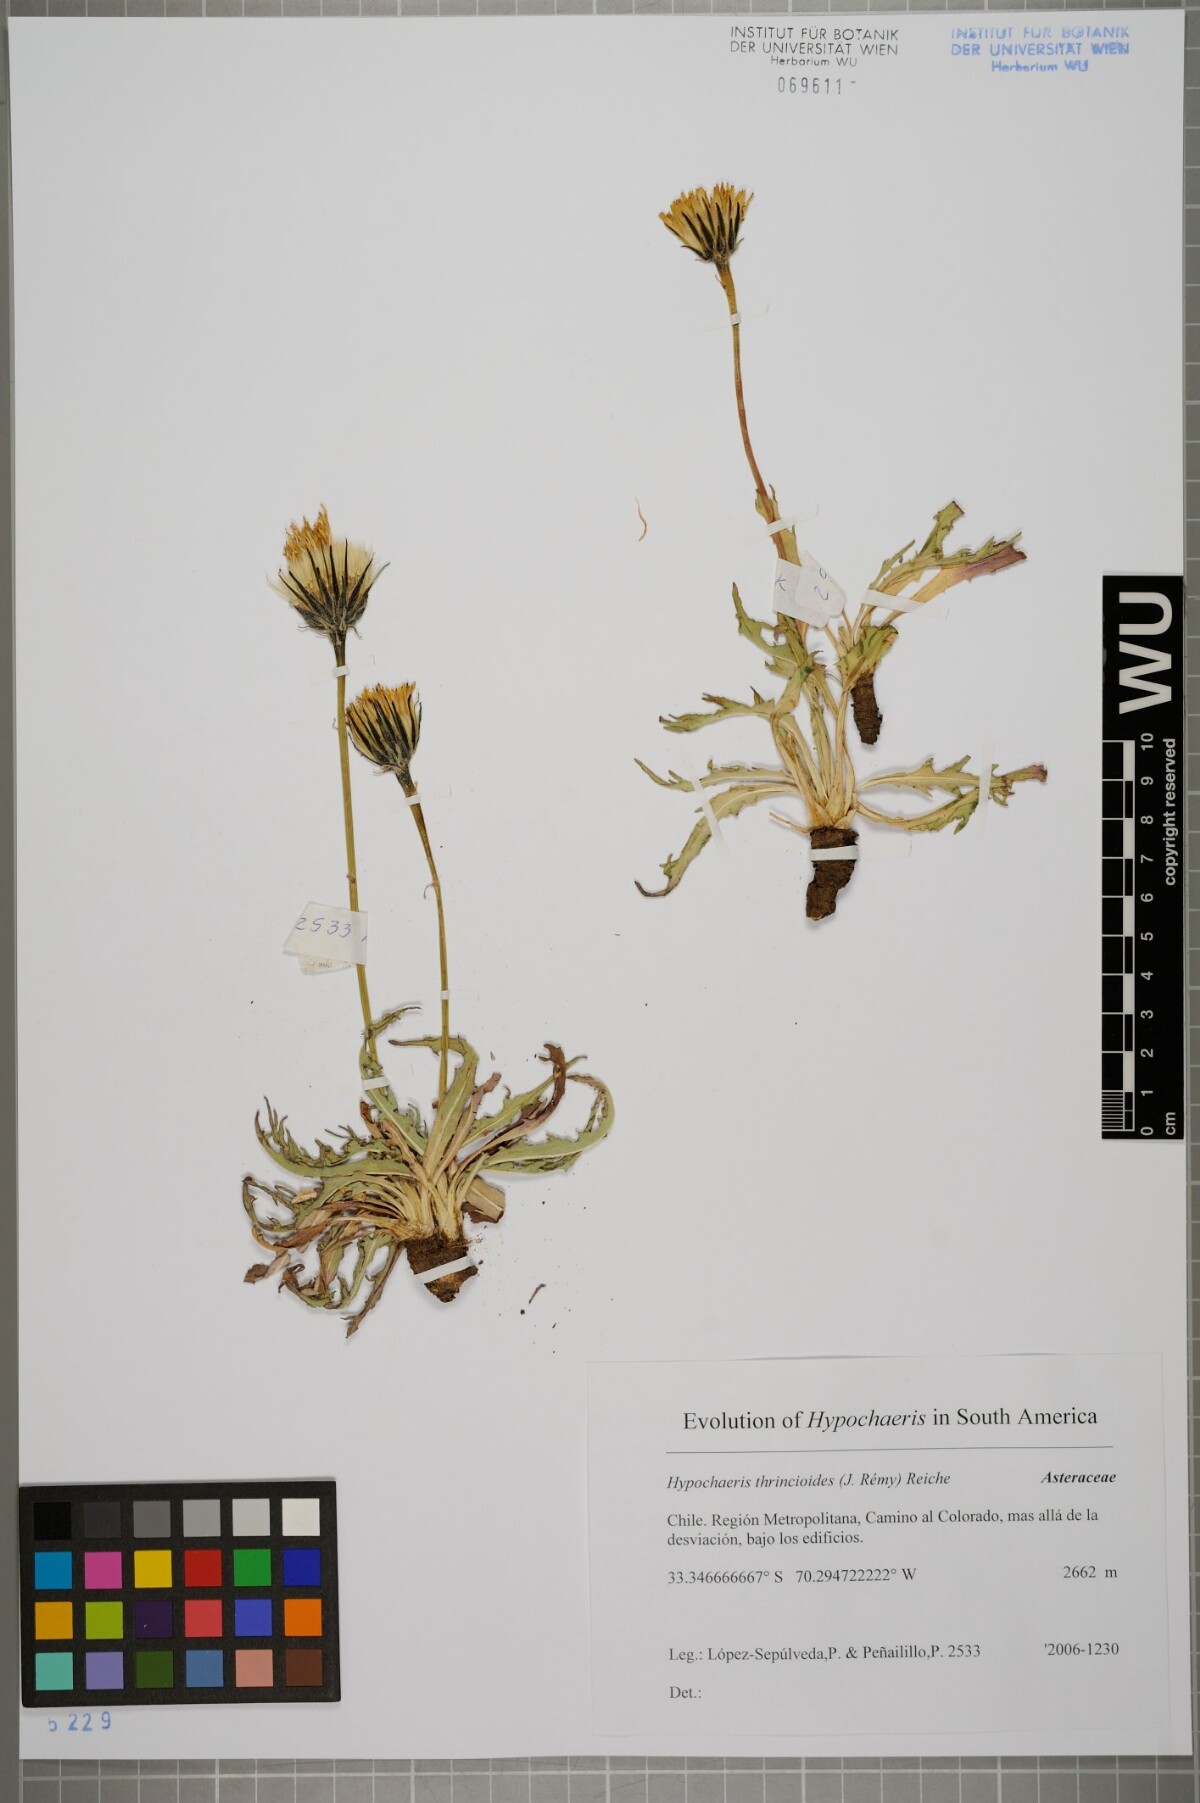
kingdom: Plantae
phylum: Tracheophyta
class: Magnoliopsida
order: Asterales
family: Asteraceae
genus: Hypochaeris
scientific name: Hypochaeris apargioides
